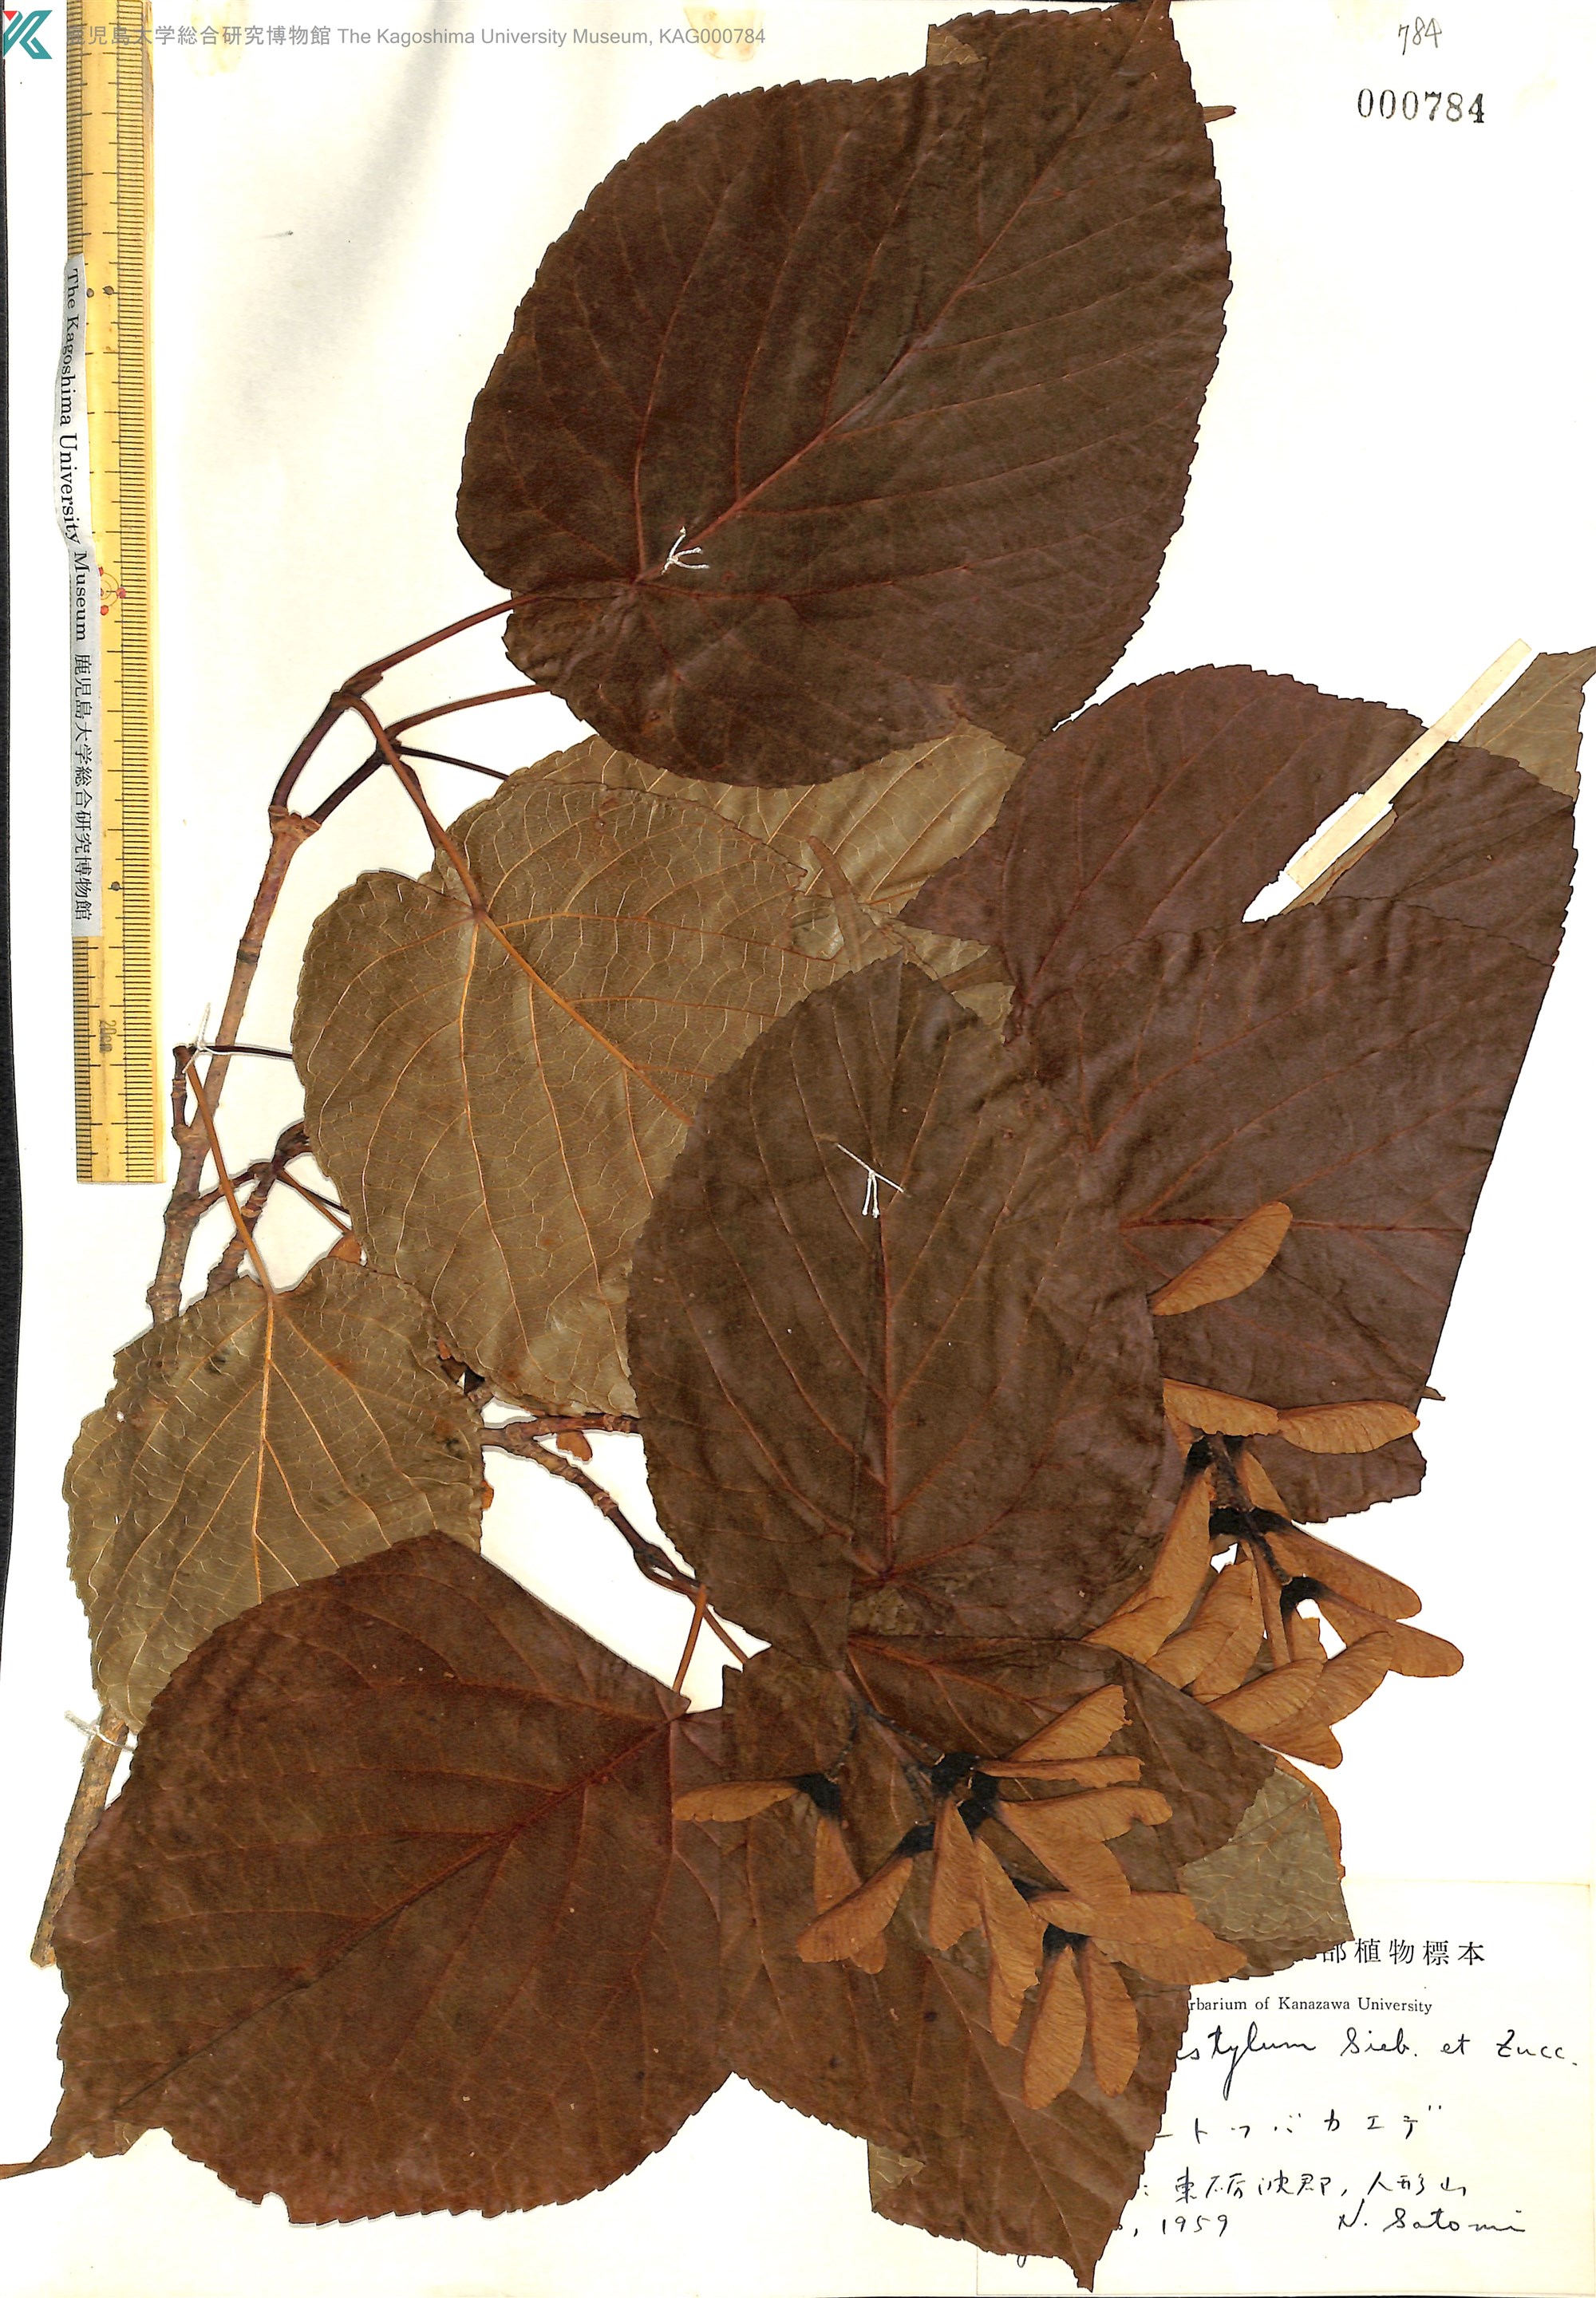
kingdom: Plantae
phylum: Tracheophyta
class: Magnoliopsida
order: Sapindales
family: Sapindaceae
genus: Acer
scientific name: Acer distylum
